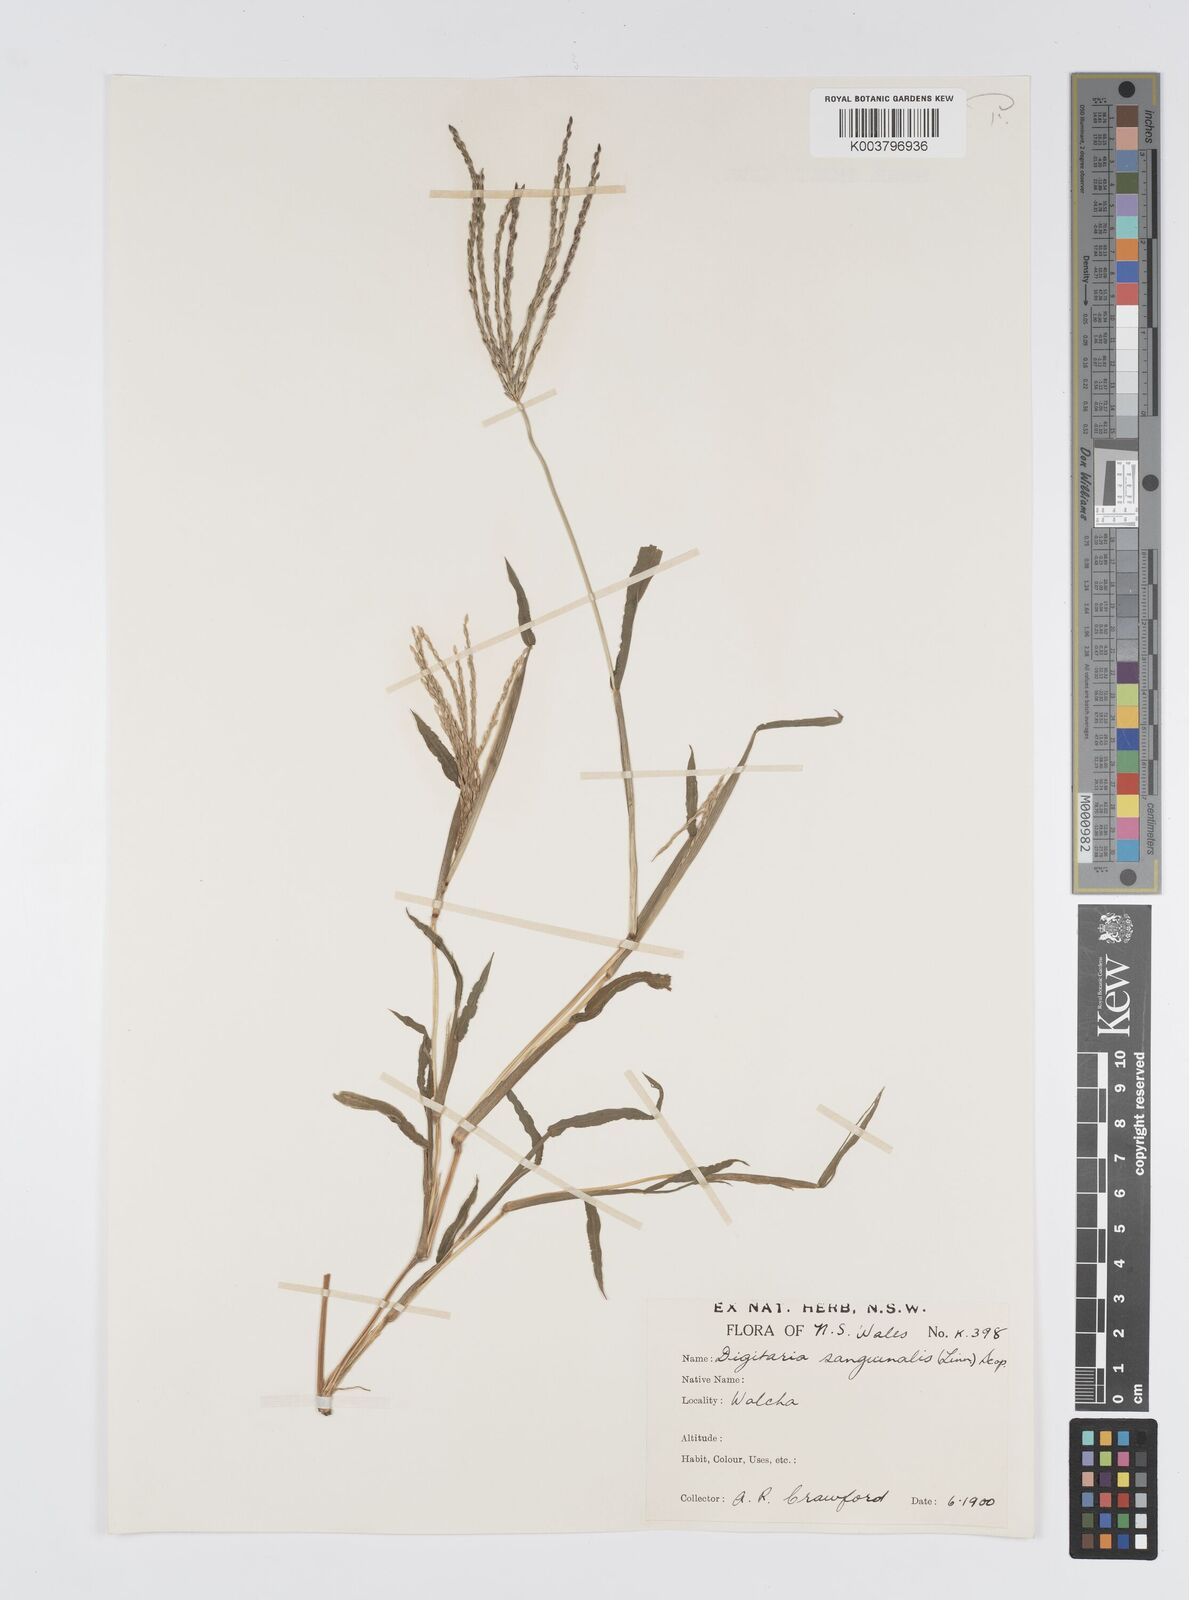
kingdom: Plantae
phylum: Tracheophyta
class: Liliopsida
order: Poales
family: Poaceae
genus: Digitaria
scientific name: Digitaria sanguinalis
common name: Hairy crabgrass
